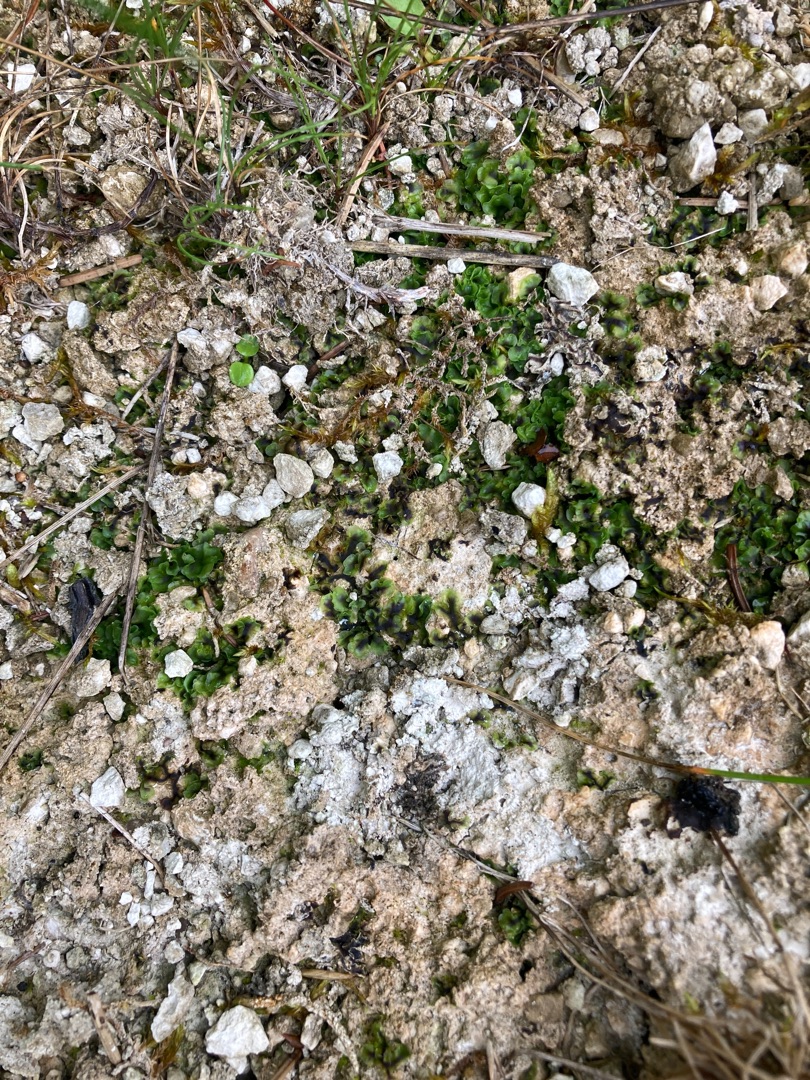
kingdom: Plantae
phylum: Marchantiophyta
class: Jungermanniopsida
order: Pelliales
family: Pelliaceae
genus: Apopellia
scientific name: Apopellia endiviifolia
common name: Fliget ribbeløv
